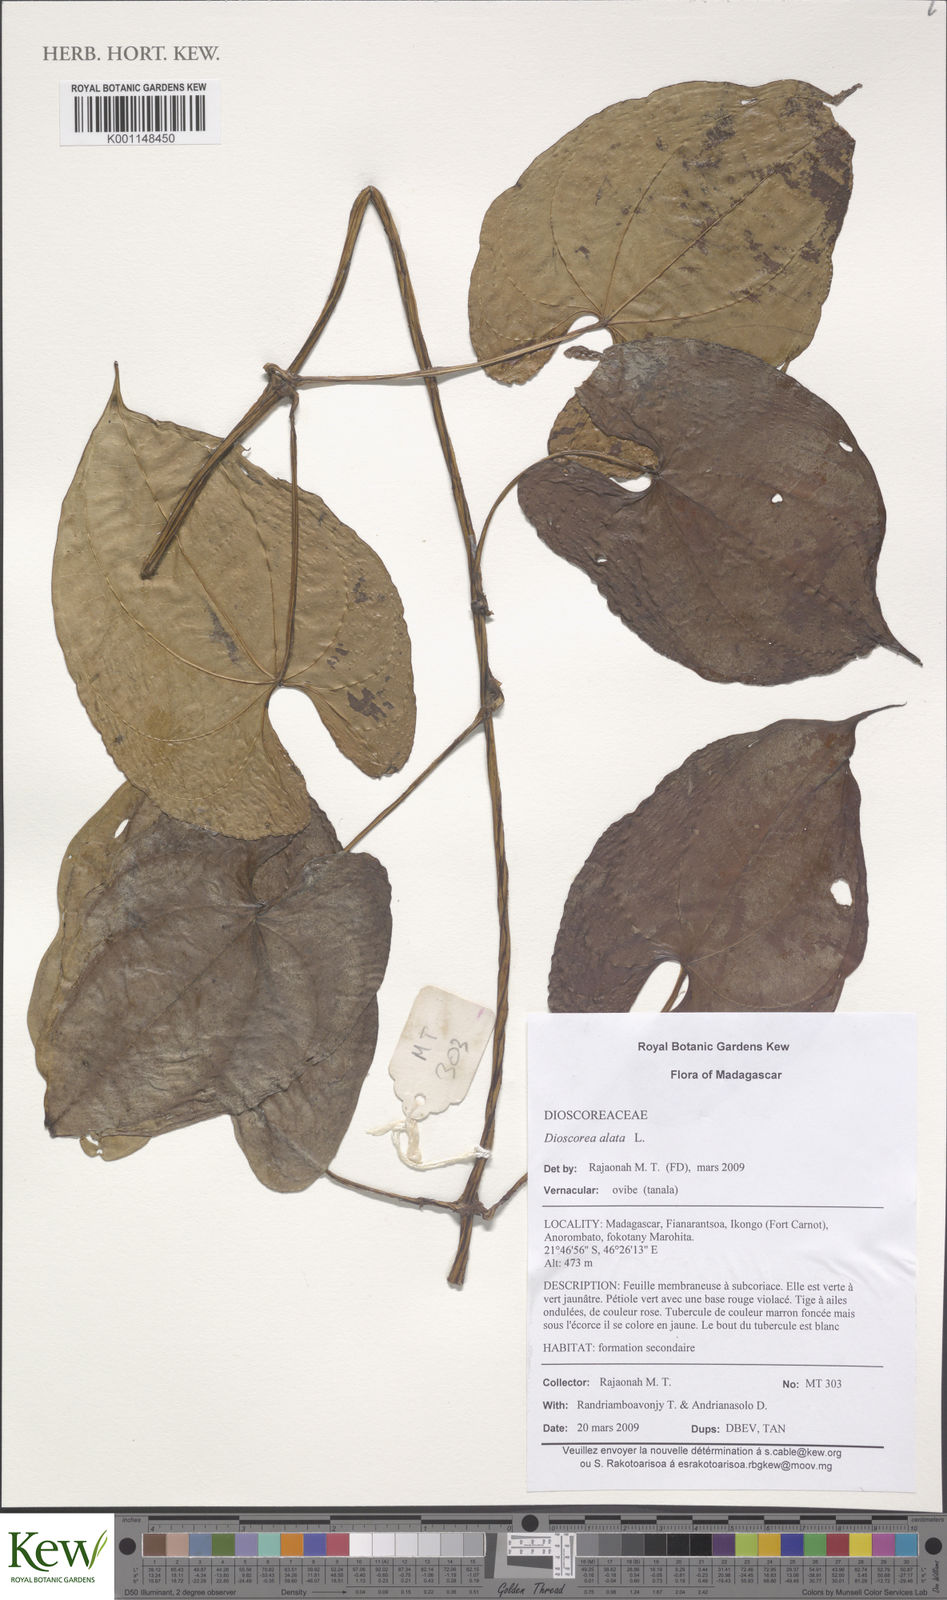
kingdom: Plantae
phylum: Tracheophyta
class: Liliopsida
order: Dioscoreales
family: Dioscoreaceae
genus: Dioscorea
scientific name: Dioscorea alata
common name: Water yam
